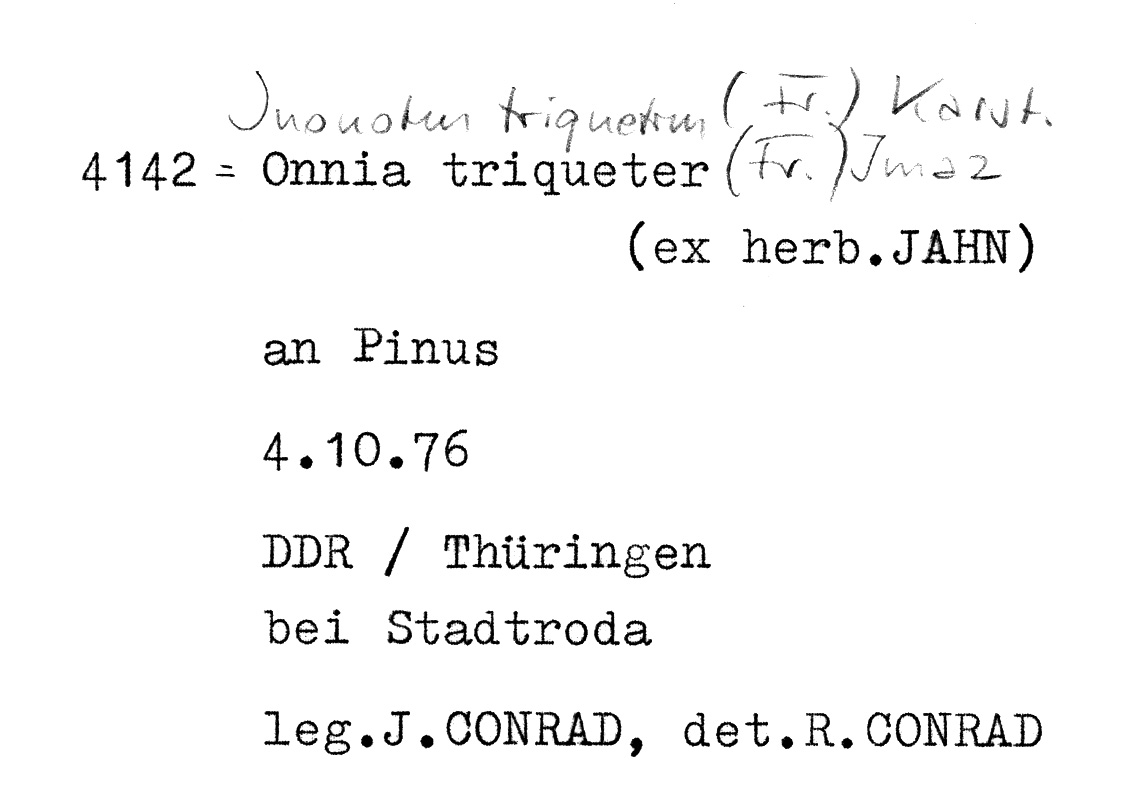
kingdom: Fungi
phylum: Basidiomycota
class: Agaricomycetes
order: Hymenochaetales
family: Hymenochaetaceae
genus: Inonotus
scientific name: Inonotus cuticularis
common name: Clustered bracket
